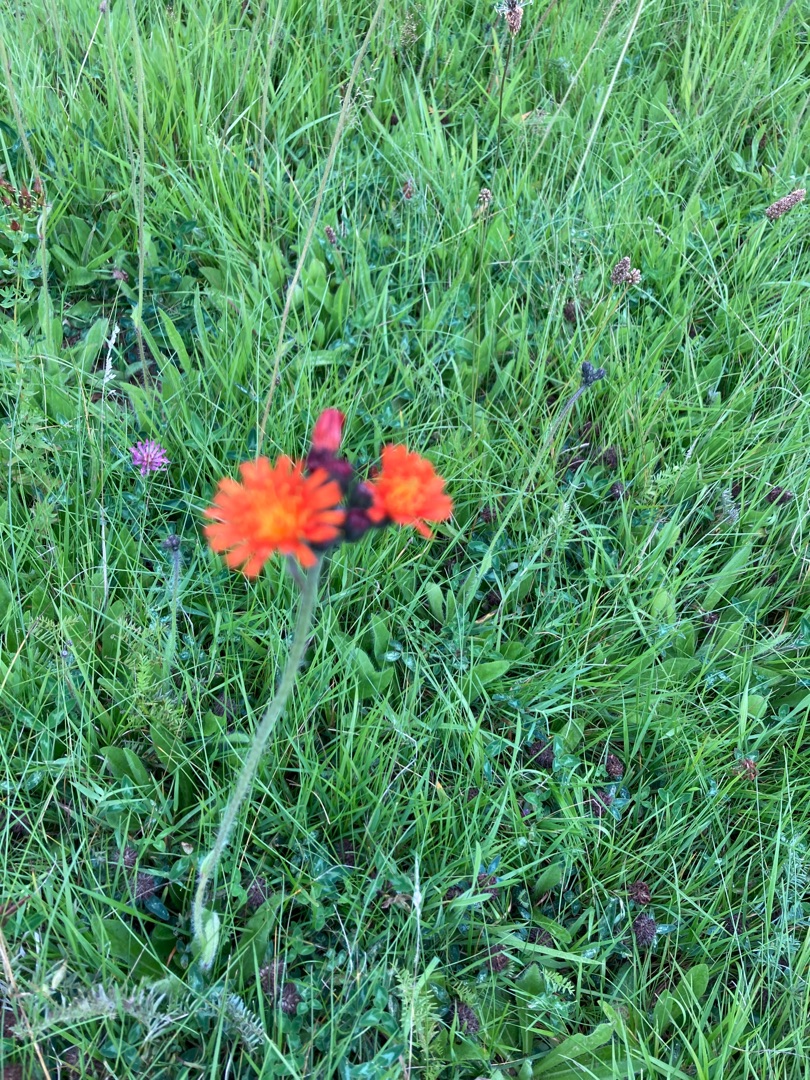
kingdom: Plantae
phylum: Tracheophyta
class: Magnoliopsida
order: Asterales
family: Asteraceae
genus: Pilosella
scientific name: Pilosella aurantiaca
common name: Pomerans-høgeurt
